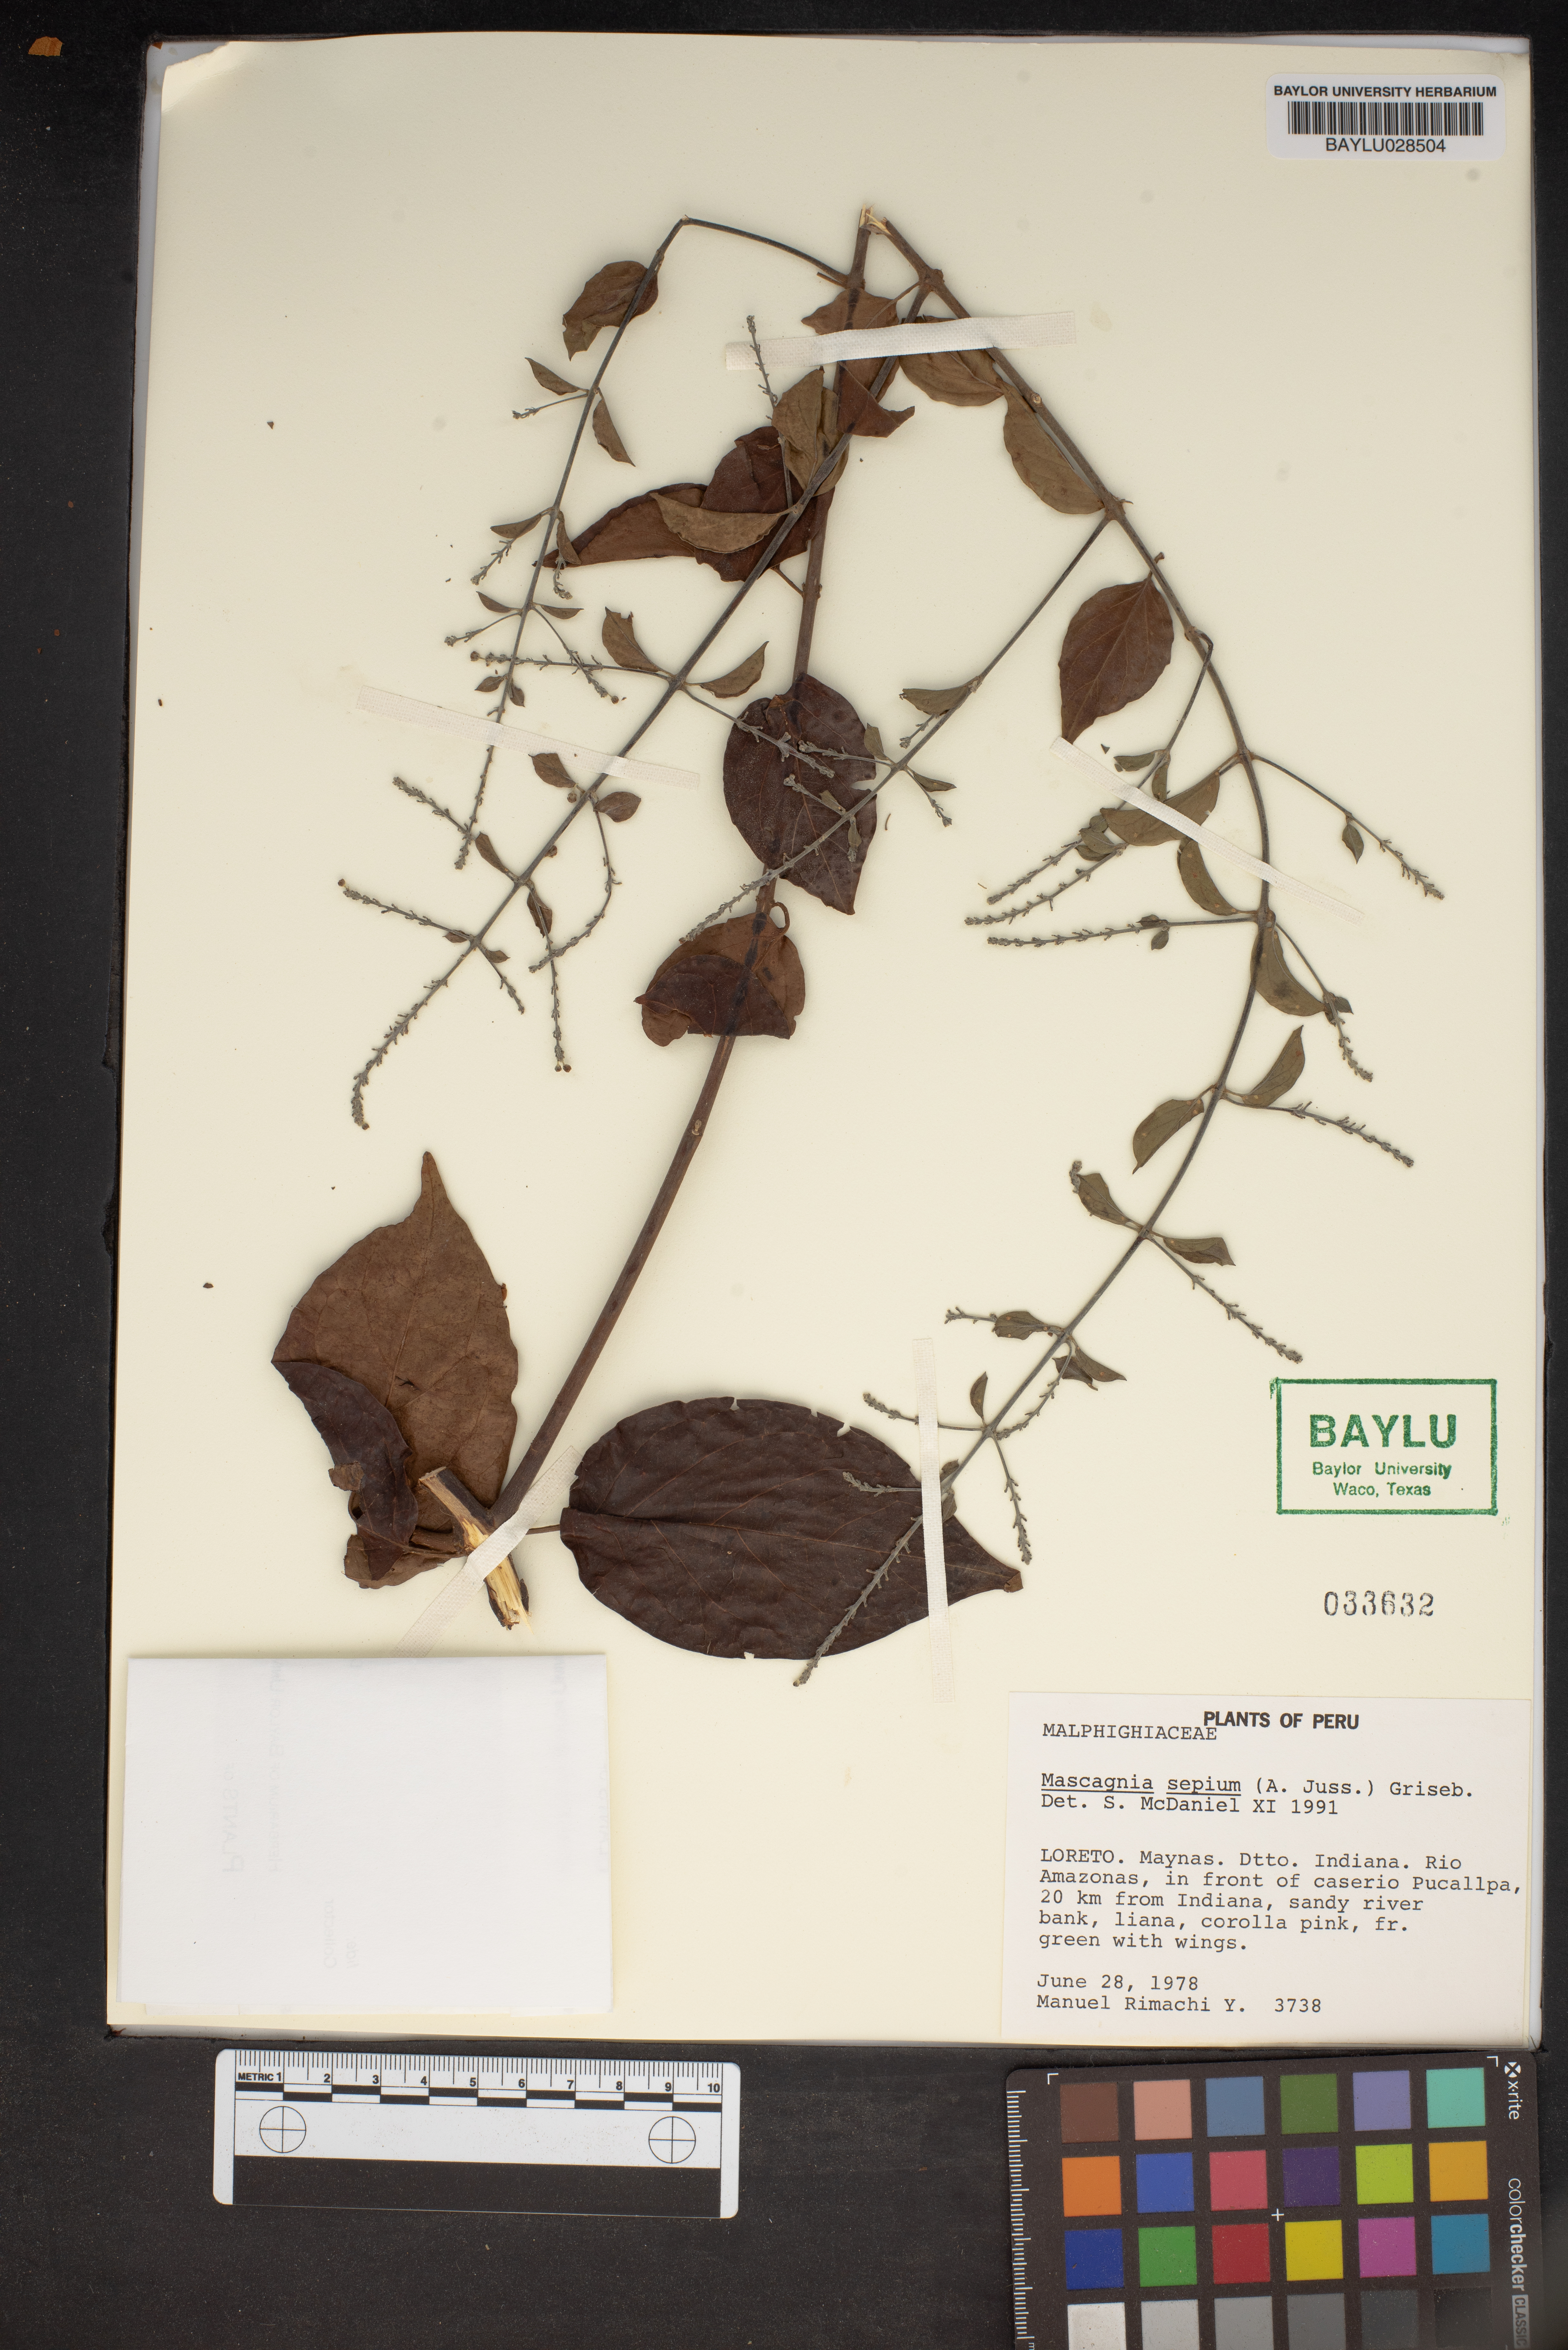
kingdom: Plantae
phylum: Tracheophyta
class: Magnoliopsida
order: Malpighiales
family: Malpighiaceae
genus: Mascagnia
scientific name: Mascagnia sepium
